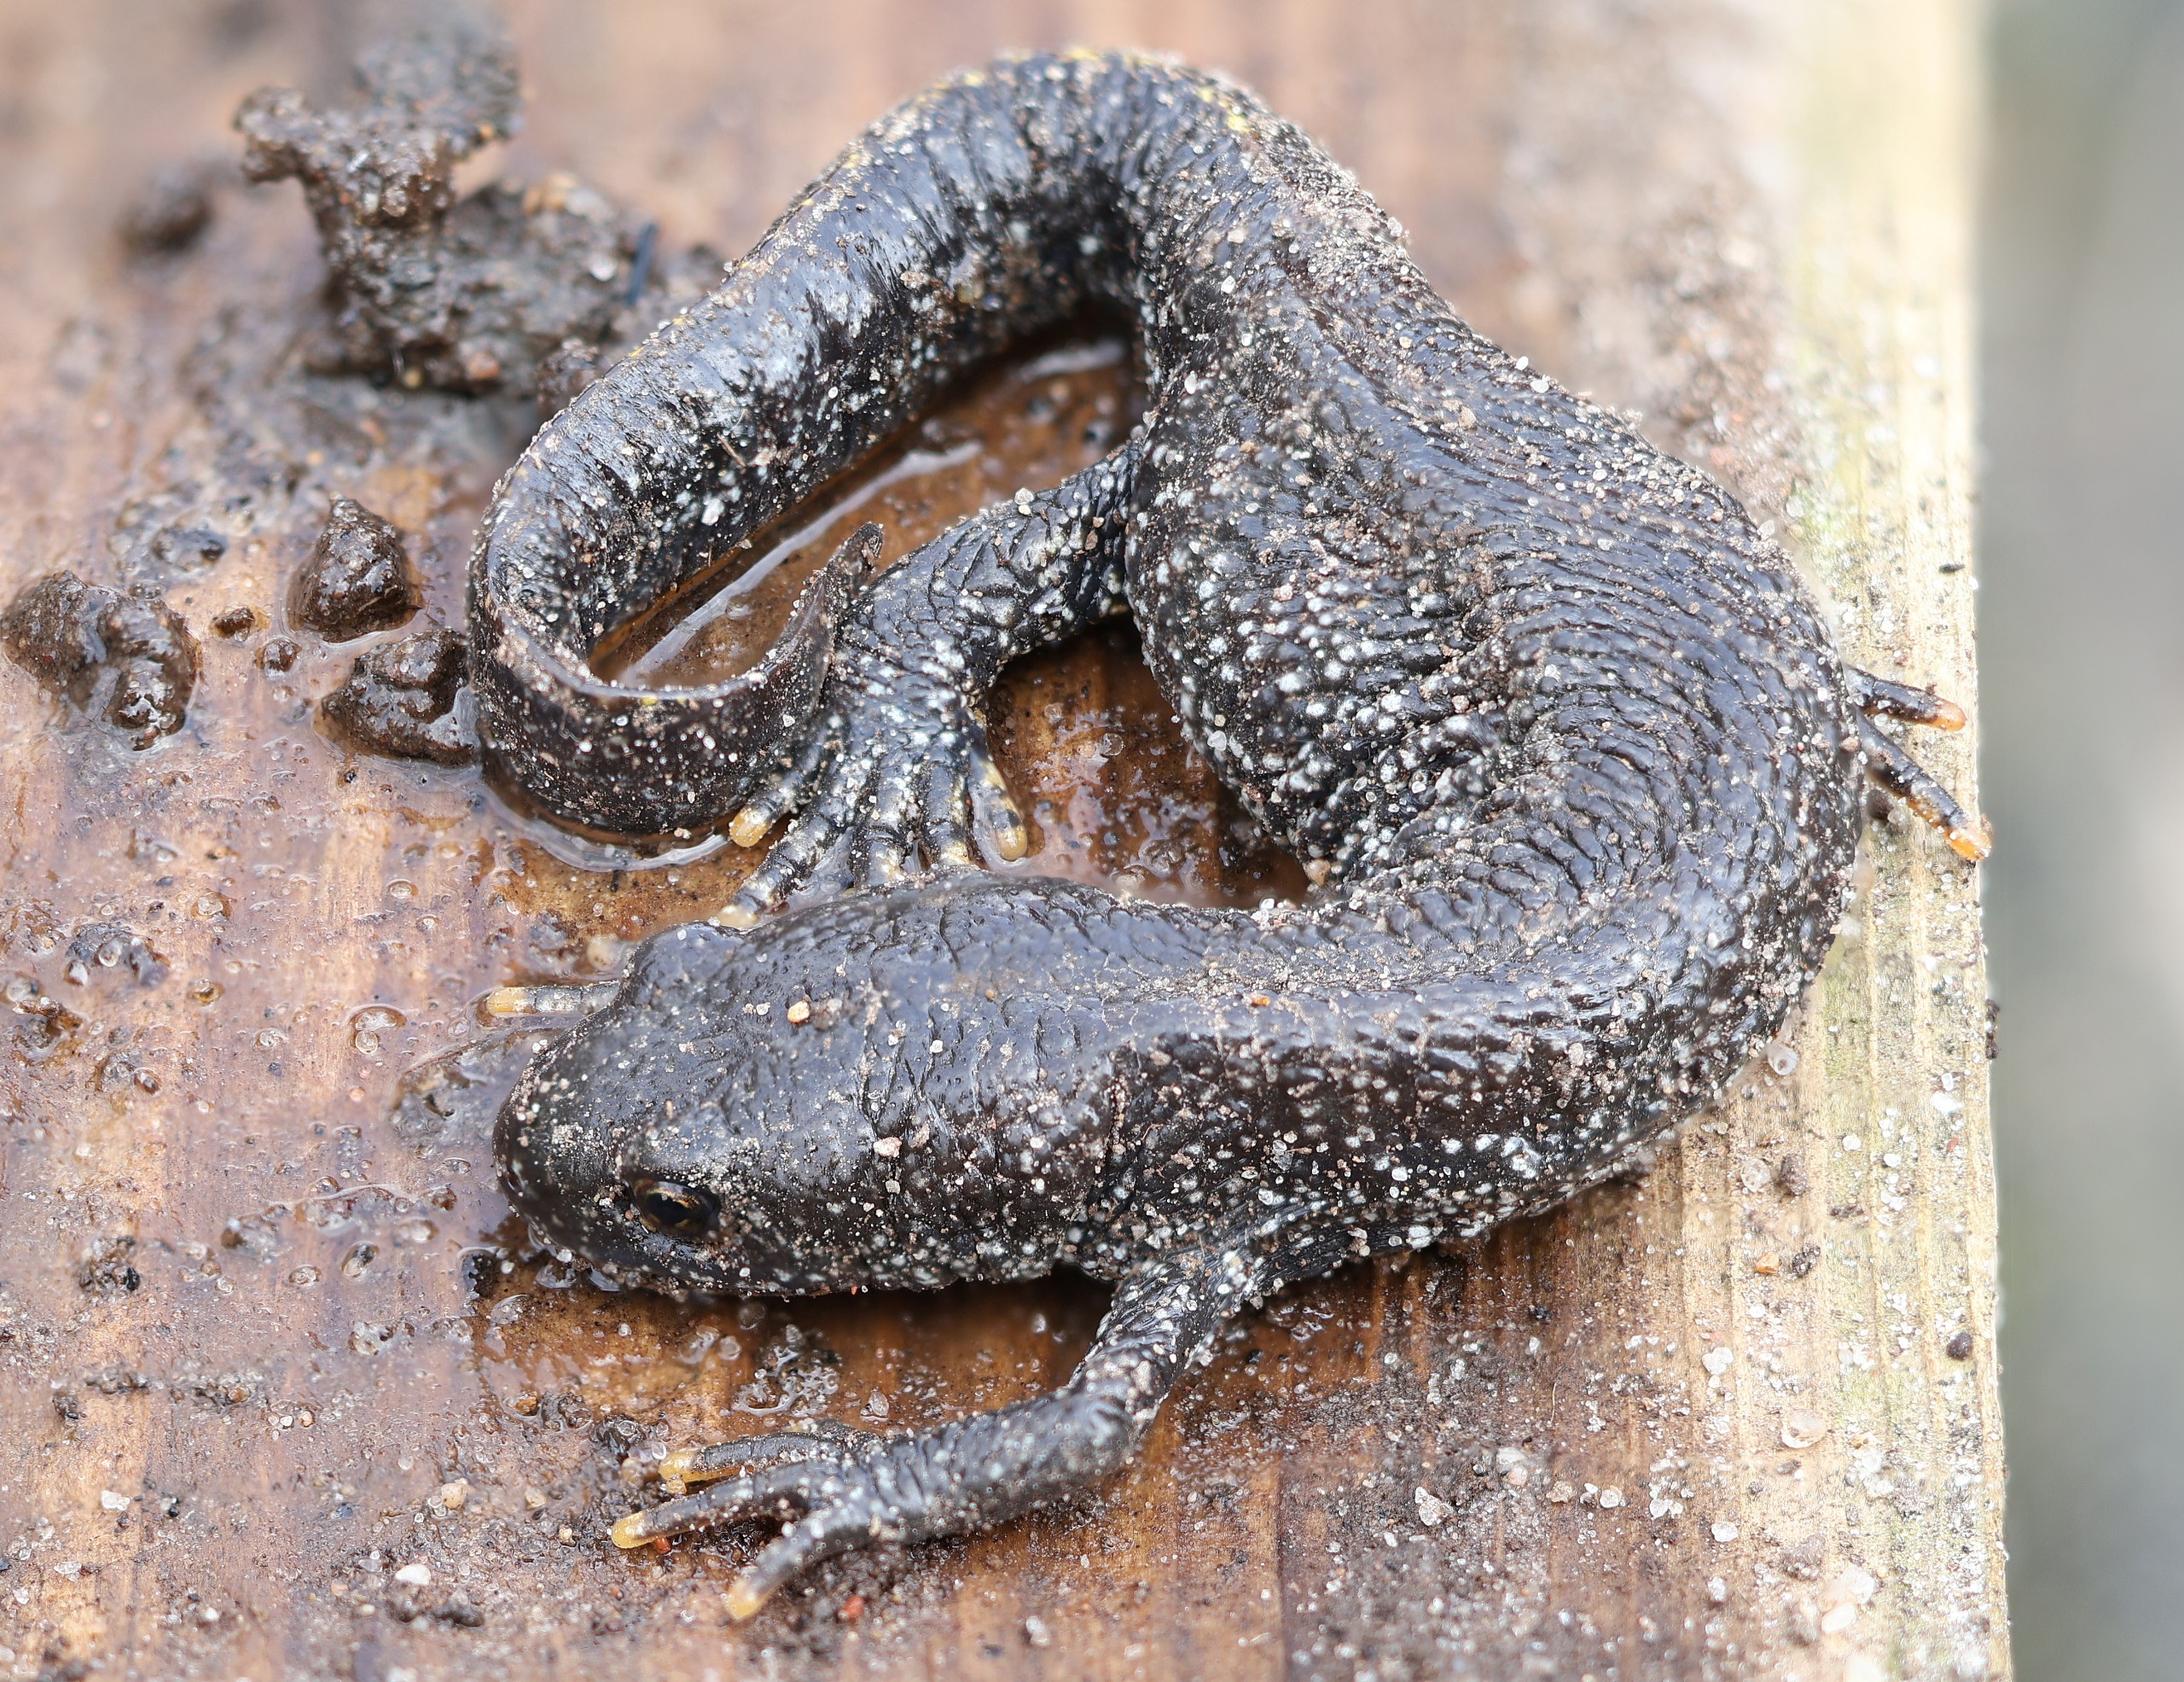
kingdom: Animalia
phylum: Chordata
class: Amphibia
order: Caudata
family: Salamandridae
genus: Triturus
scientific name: Triturus cristatus
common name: Stor vandsalamander
